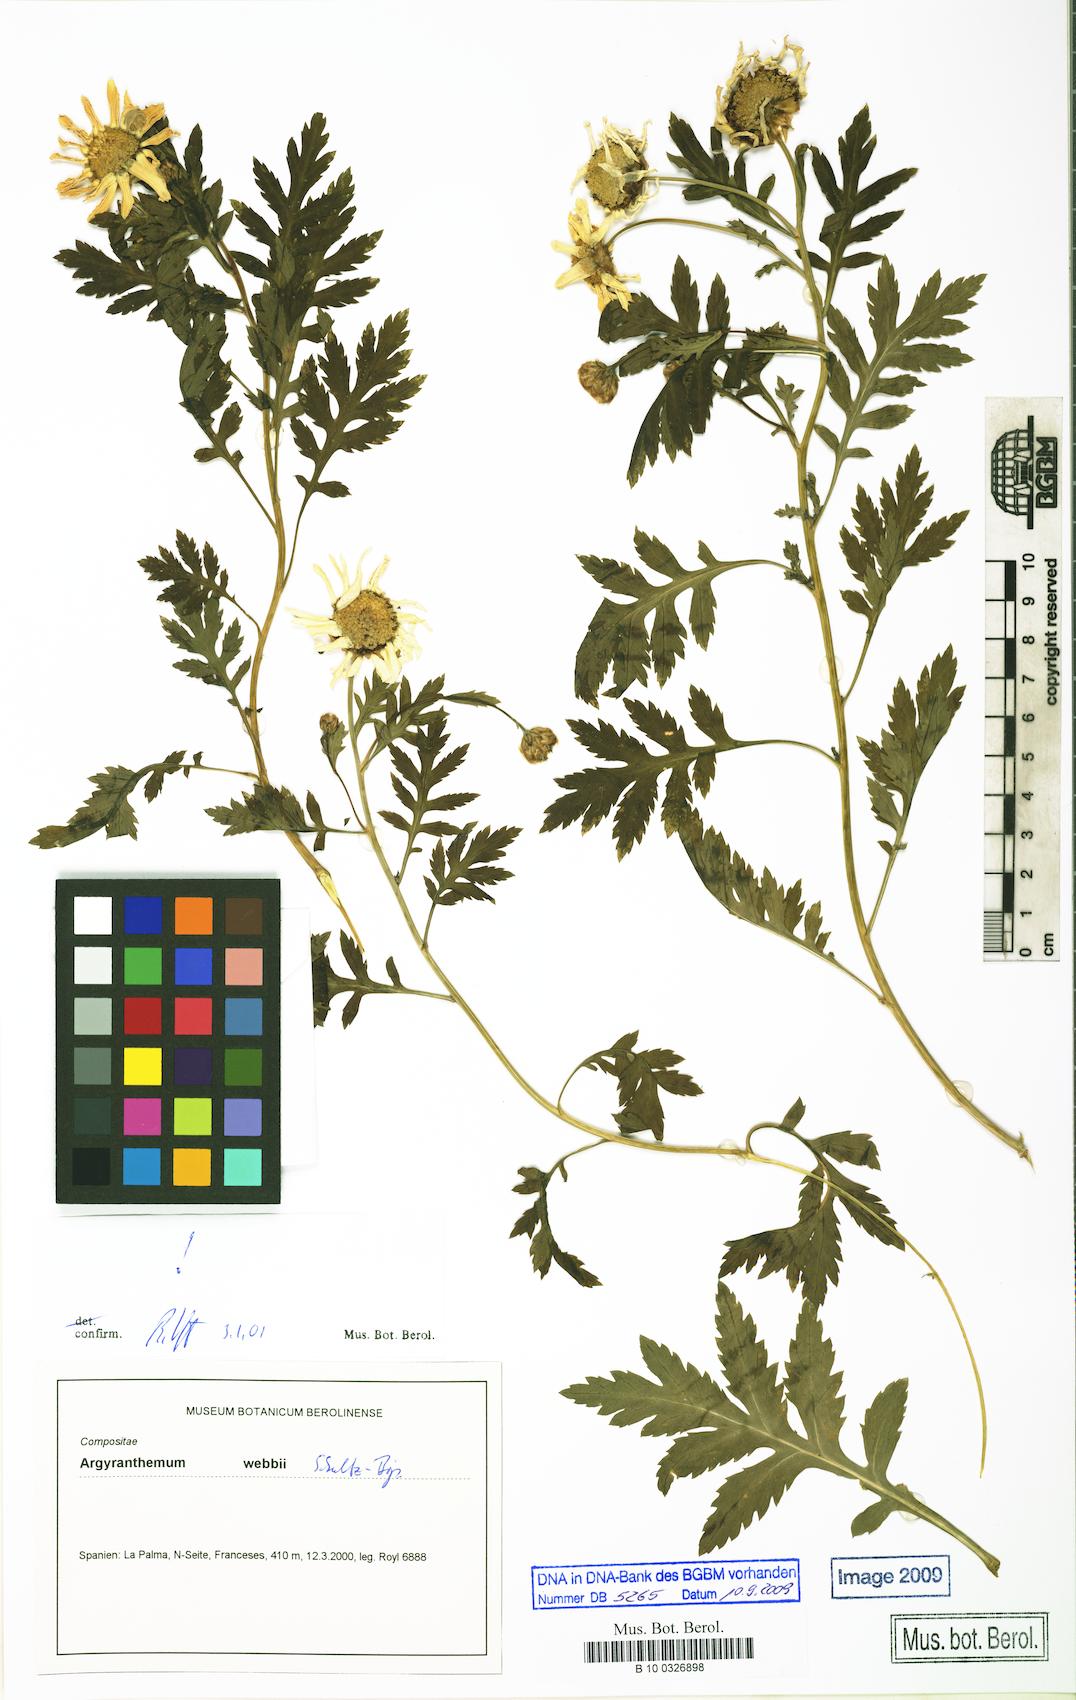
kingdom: Plantae
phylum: Tracheophyta
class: Magnoliopsida
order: Asterales
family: Asteraceae
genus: Argyranthemum
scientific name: Argyranthemum webbii
